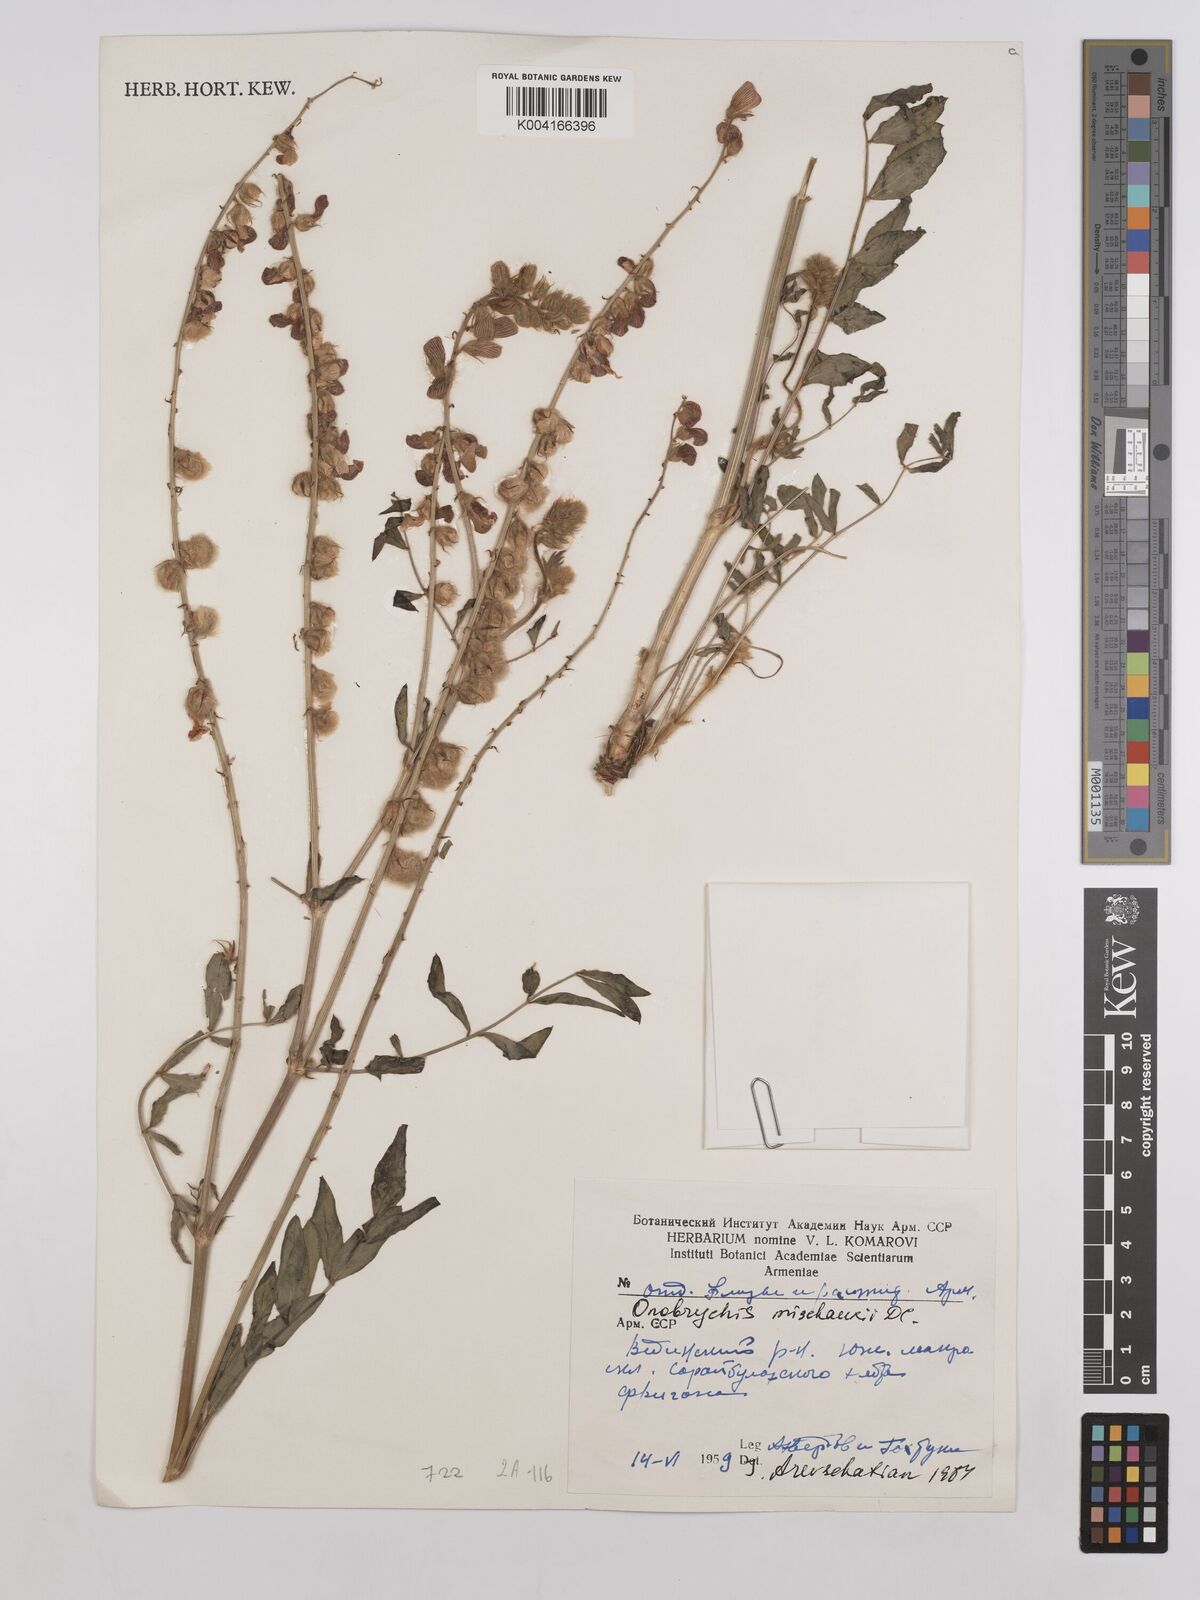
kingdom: Plantae
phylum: Tracheophyta
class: Magnoliopsida
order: Fabales
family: Fabaceae
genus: Onobrychis
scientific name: Onobrychis
